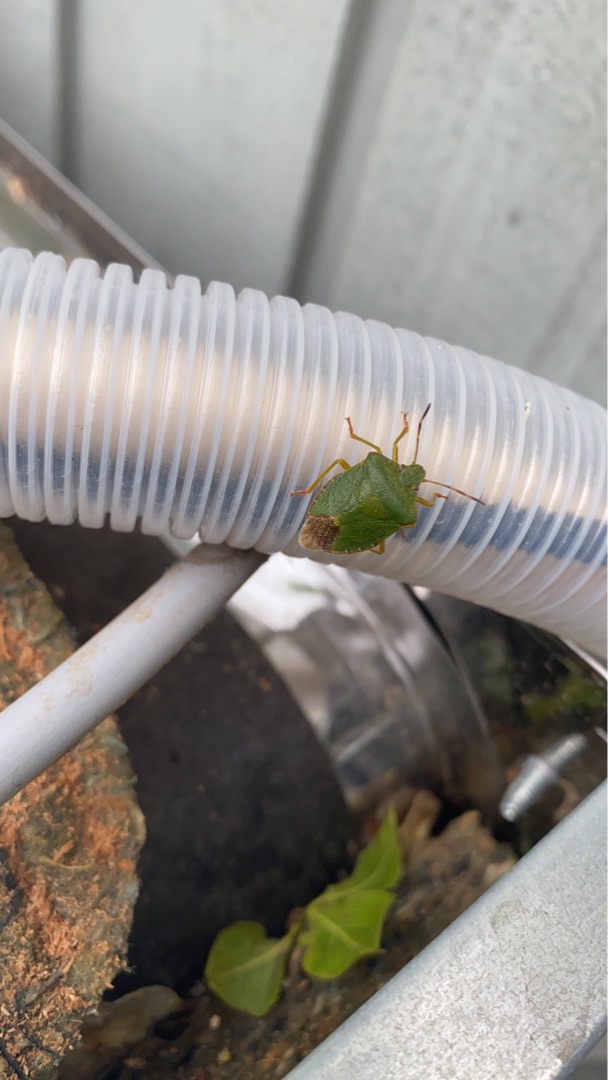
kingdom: Animalia
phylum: Arthropoda
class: Insecta
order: Hemiptera
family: Pentatomidae
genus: Palomena
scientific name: Palomena prasina
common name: Grøn bredtæge
